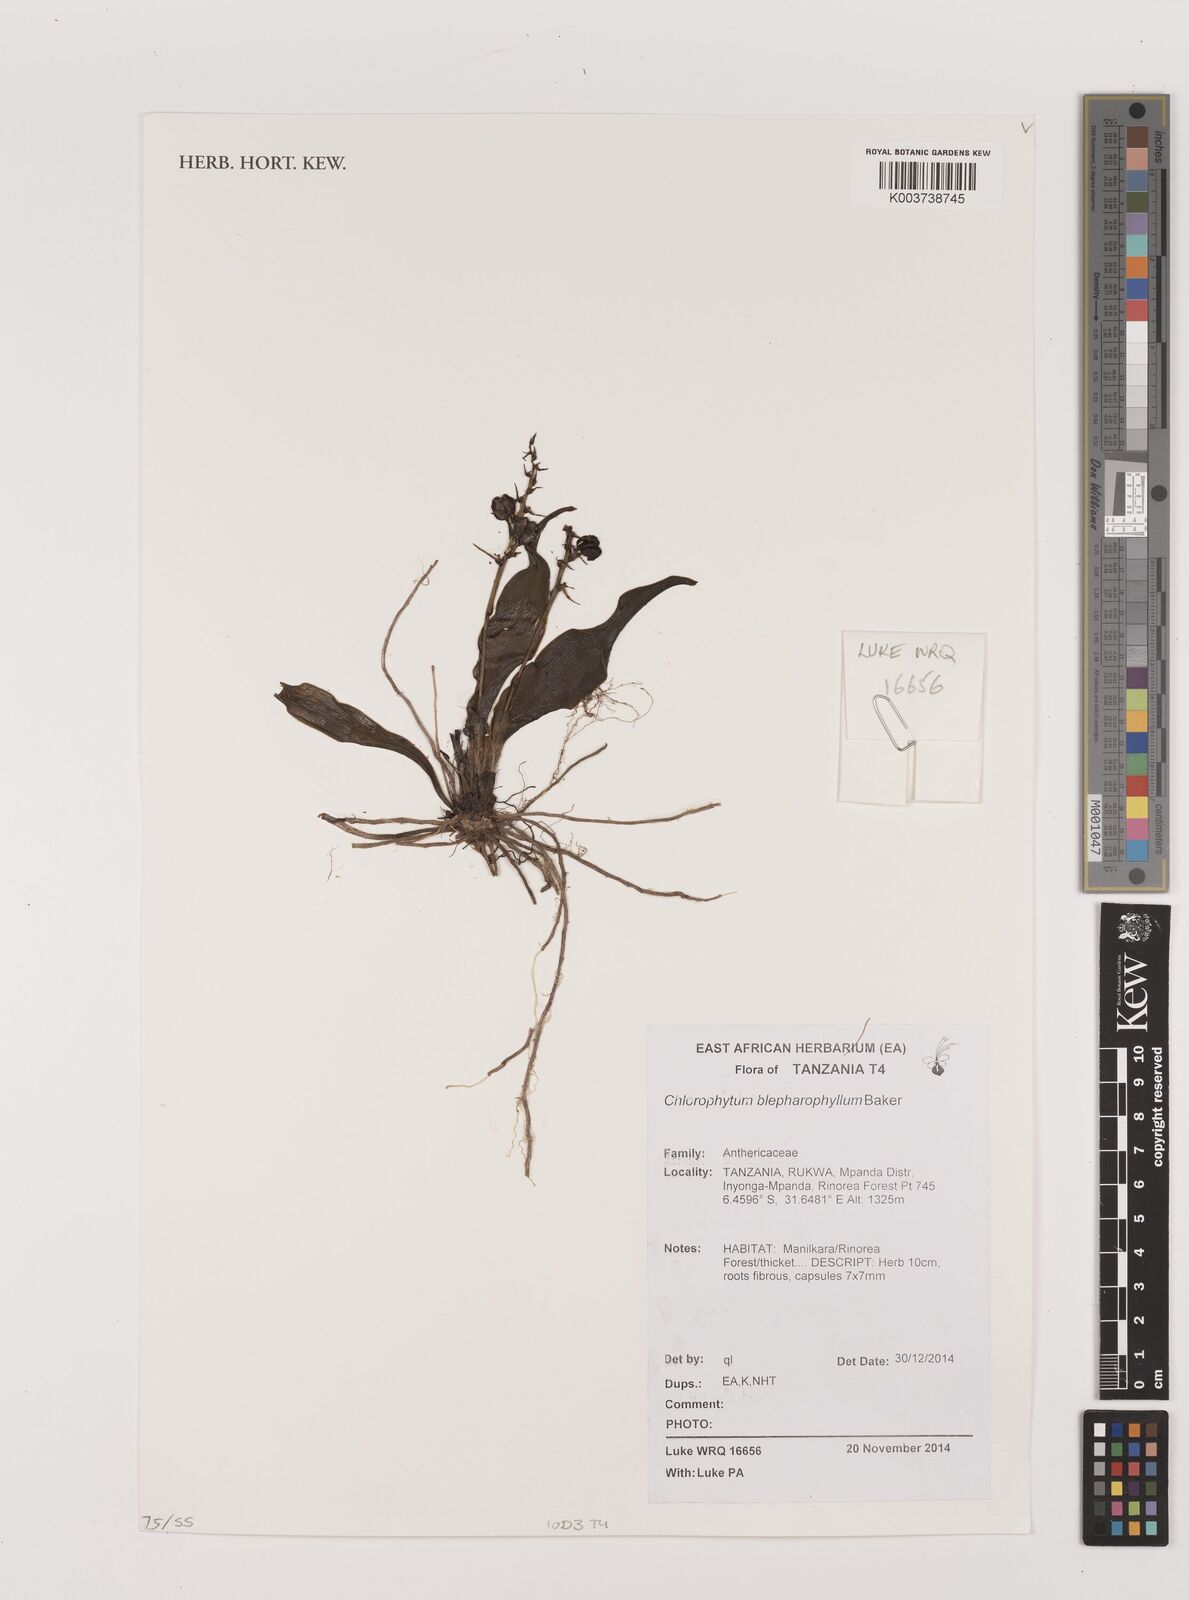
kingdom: Plantae
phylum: Tracheophyta
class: Liliopsida
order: Asparagales
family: Asparagaceae
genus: Chlorophytum
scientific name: Chlorophytum blepharophyllum
